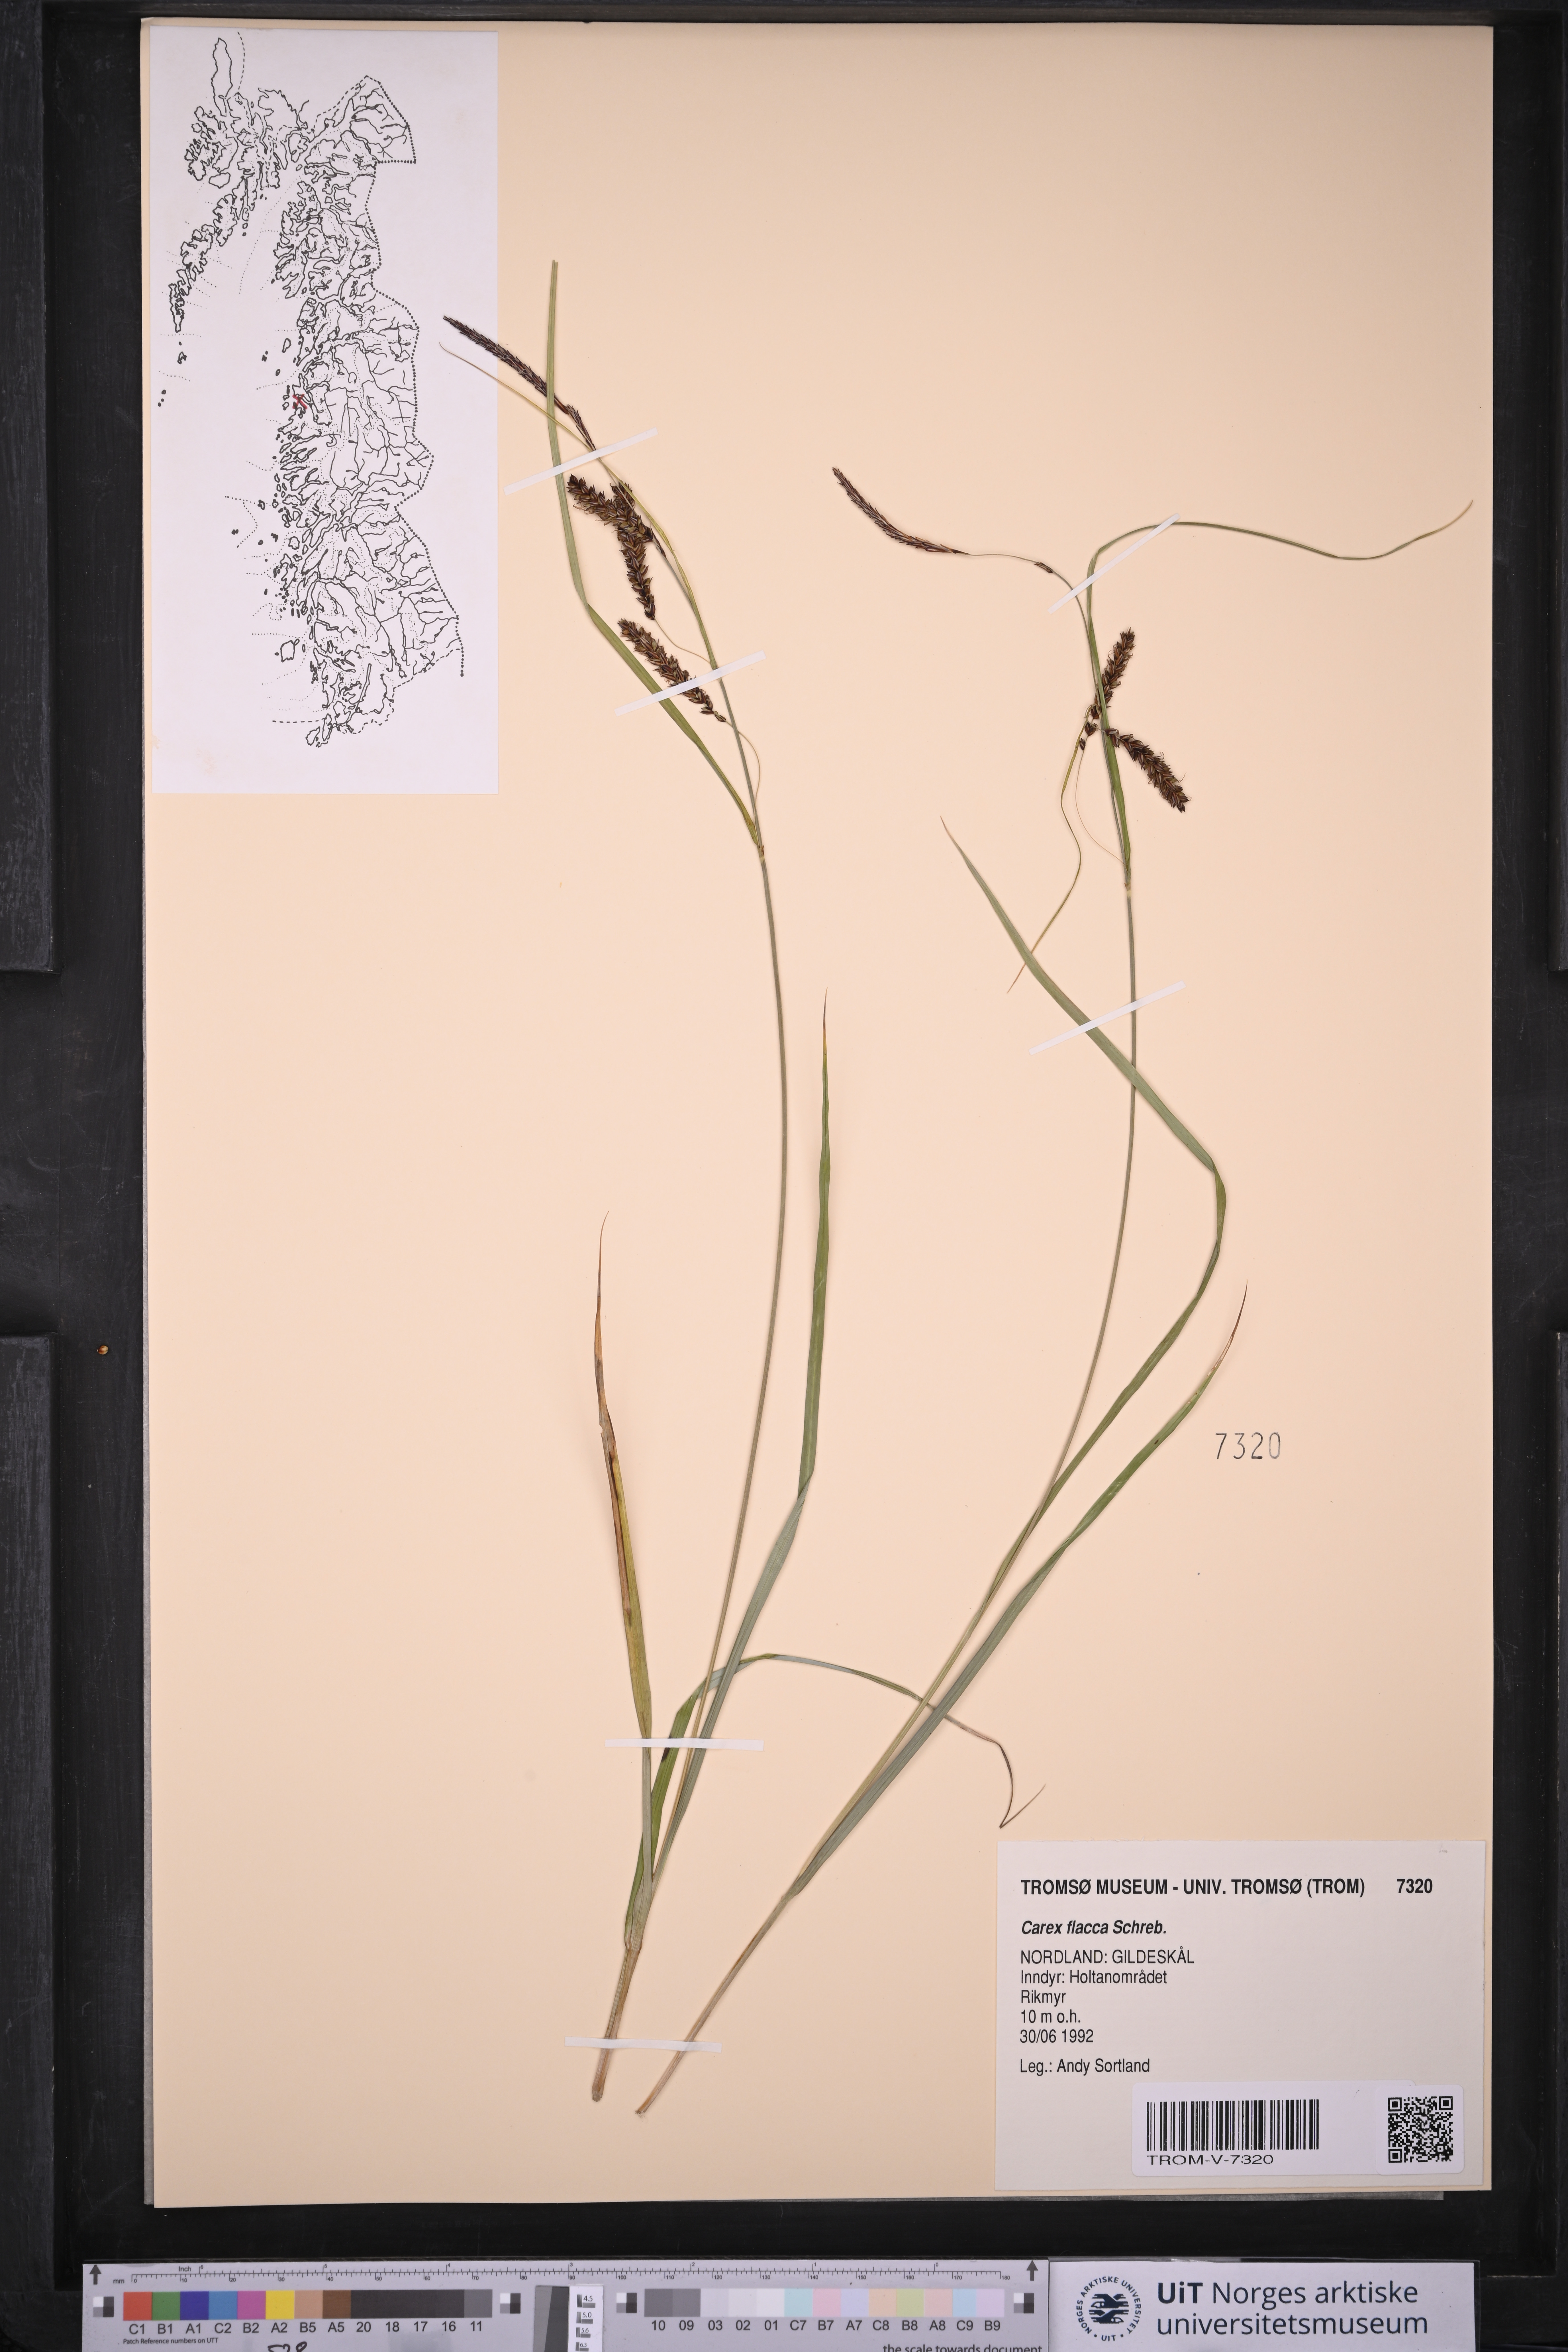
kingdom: Plantae
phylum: Tracheophyta
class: Liliopsida
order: Poales
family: Cyperaceae
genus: Carex
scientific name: Carex flacca
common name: Glaucous sedge
